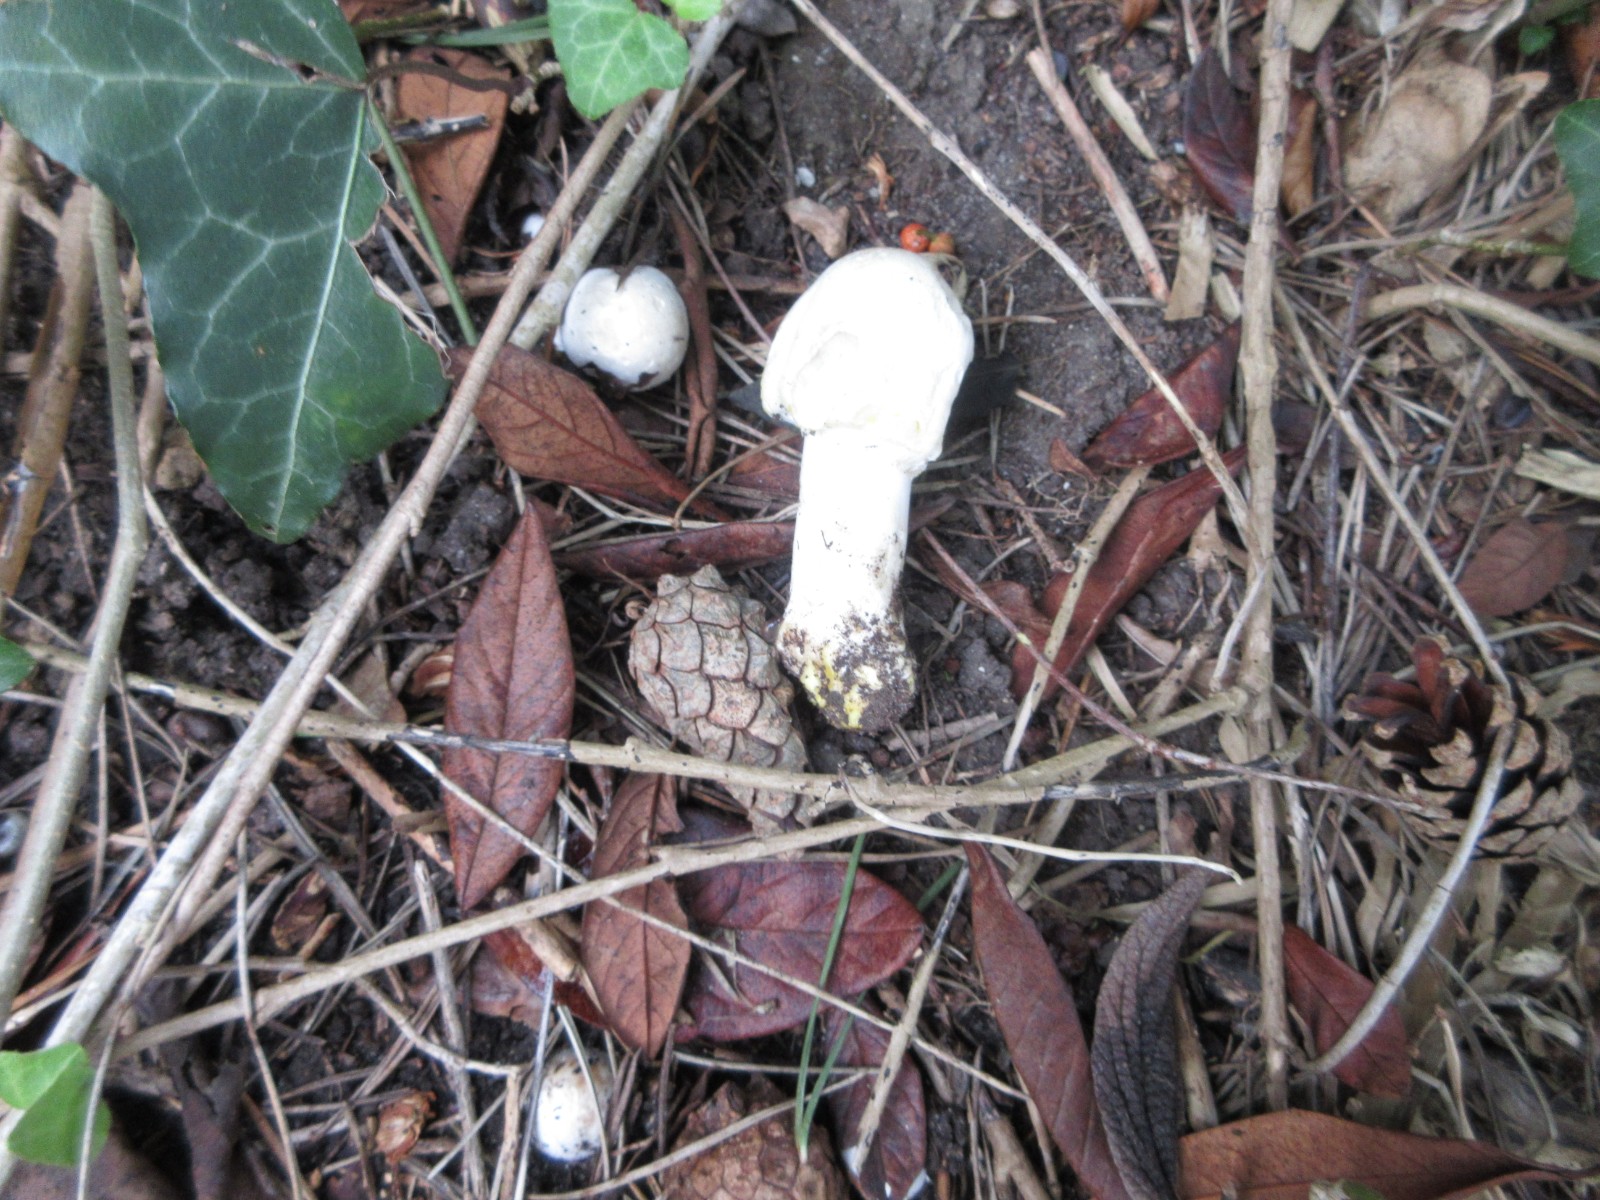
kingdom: Fungi
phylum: Basidiomycota
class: Agaricomycetes
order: Agaricales
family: Agaricaceae
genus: Agaricus
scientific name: Agaricus xanthodermus
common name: karbol-champignon
